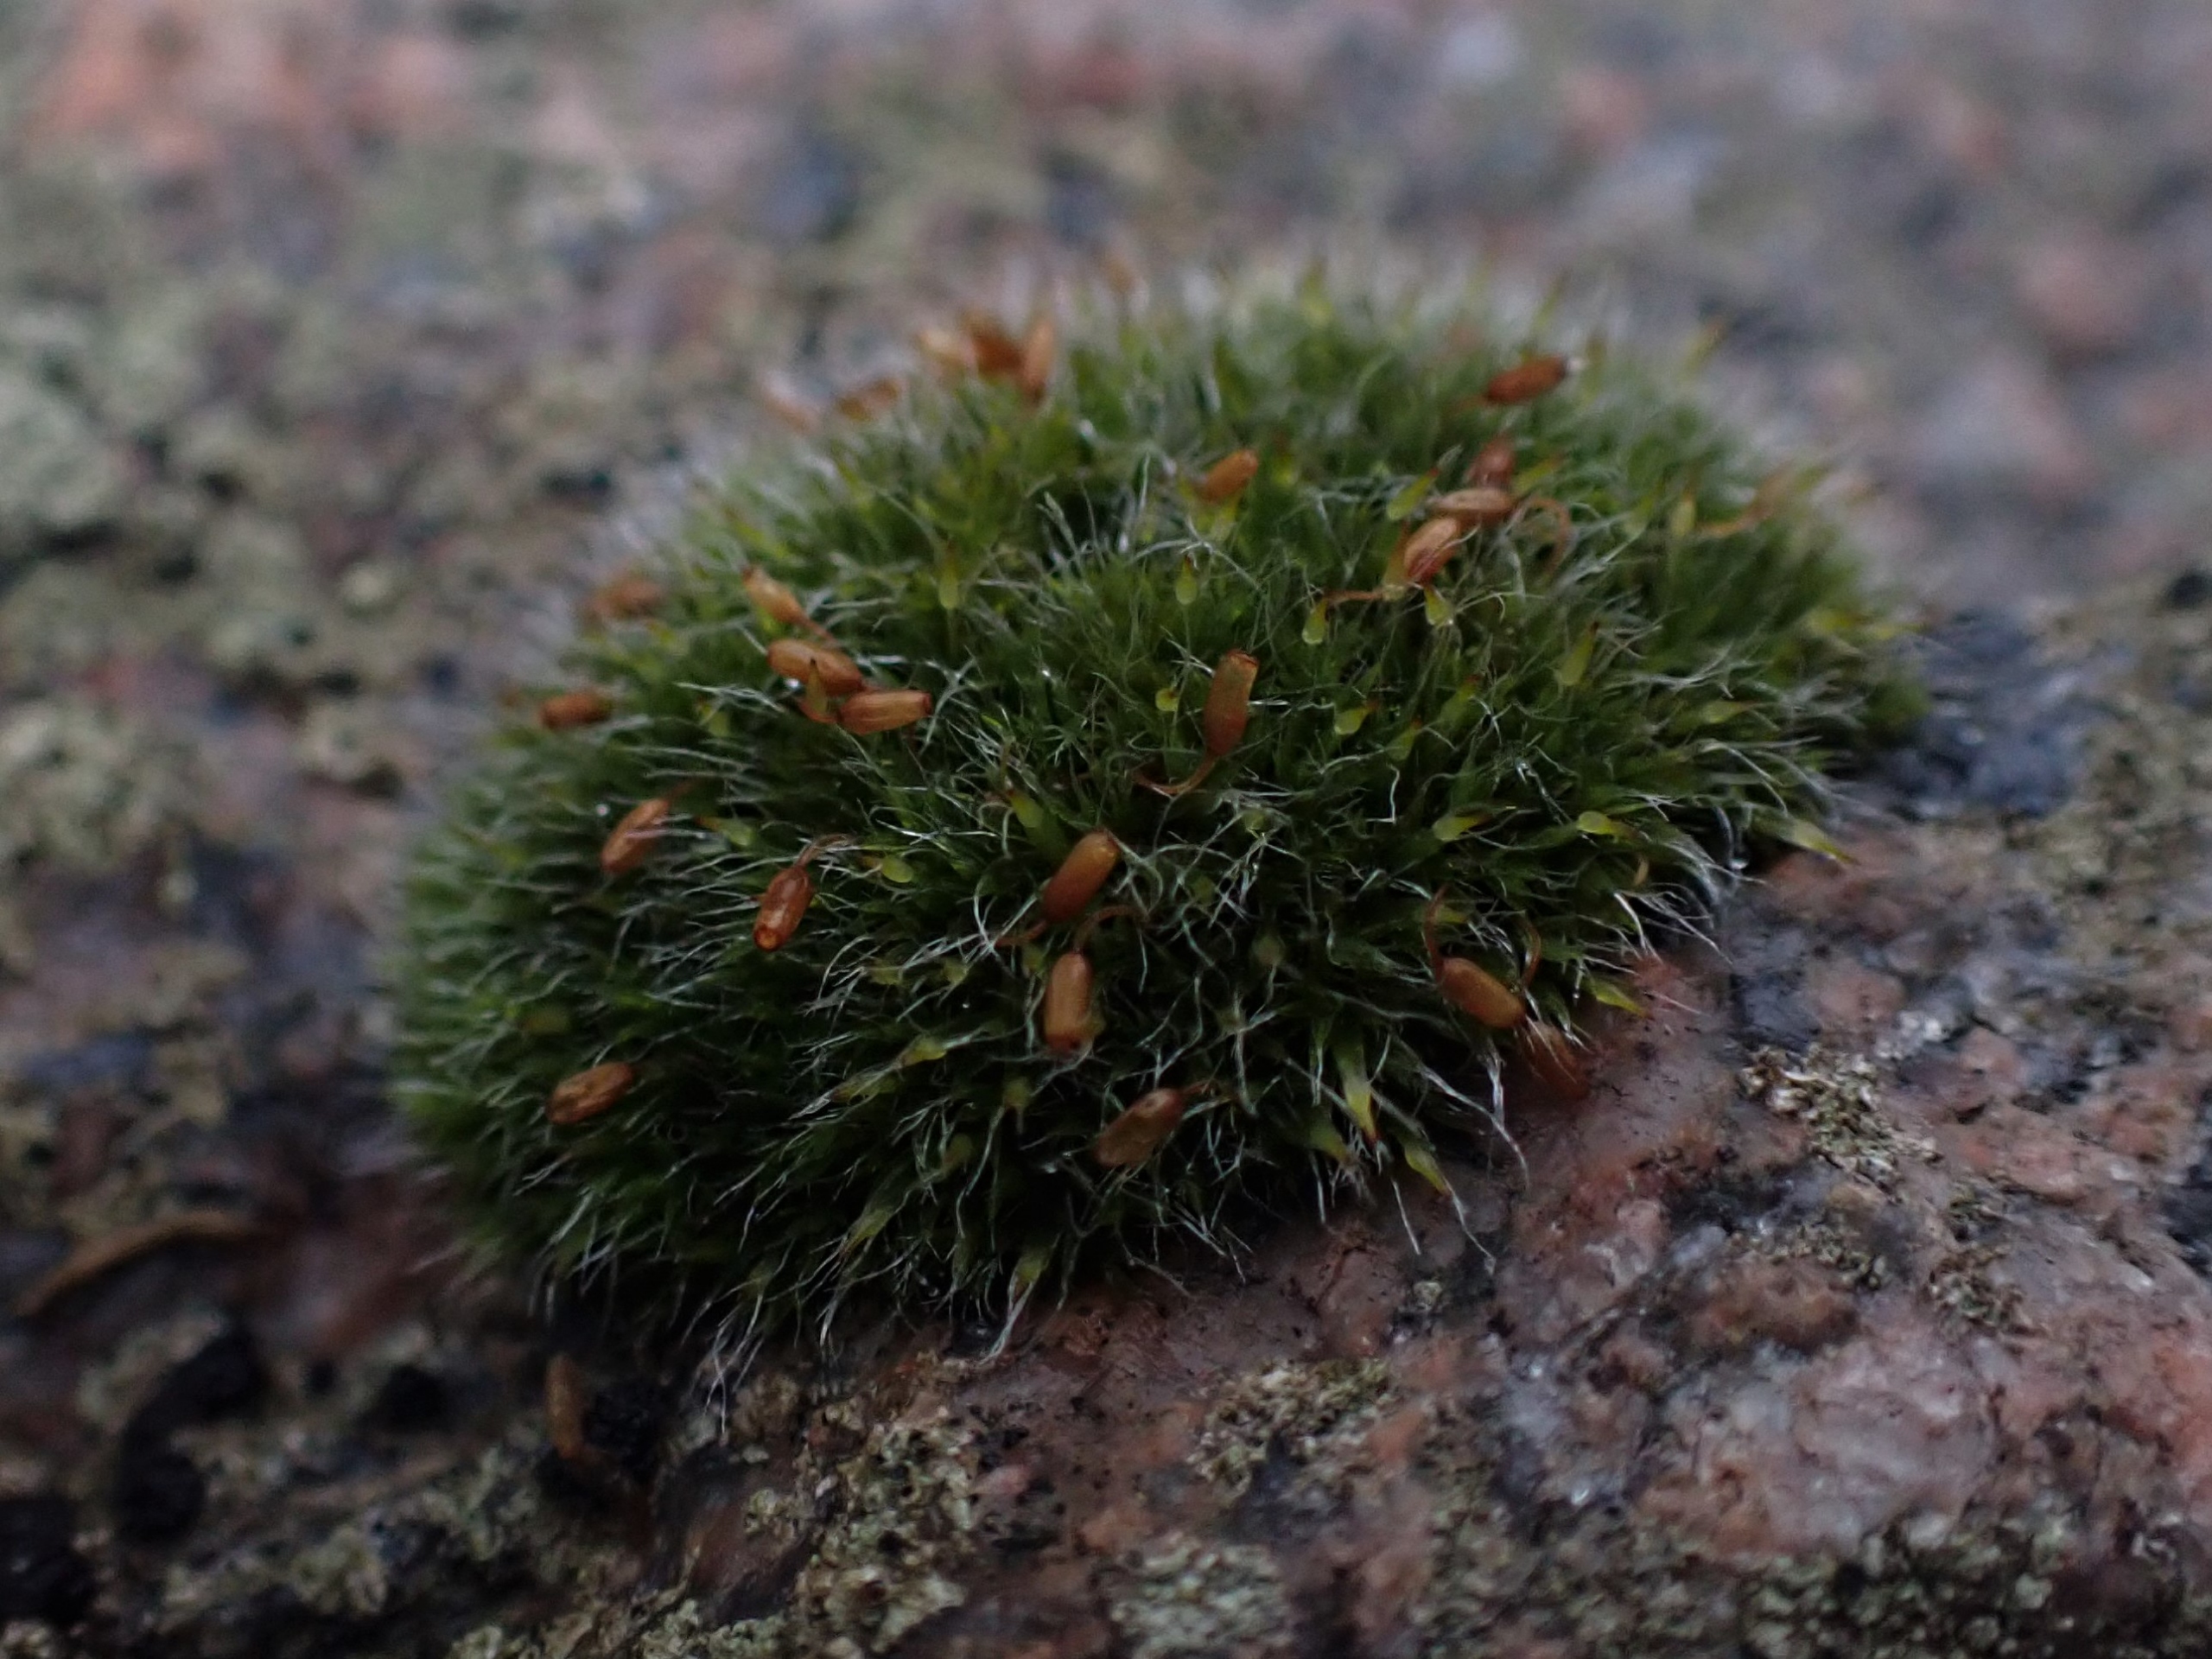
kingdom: Plantae
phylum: Bryophyta
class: Bryopsida
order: Grimmiales
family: Grimmiaceae
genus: Grimmia
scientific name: Grimmia pulvinata
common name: Pude-gråmos
